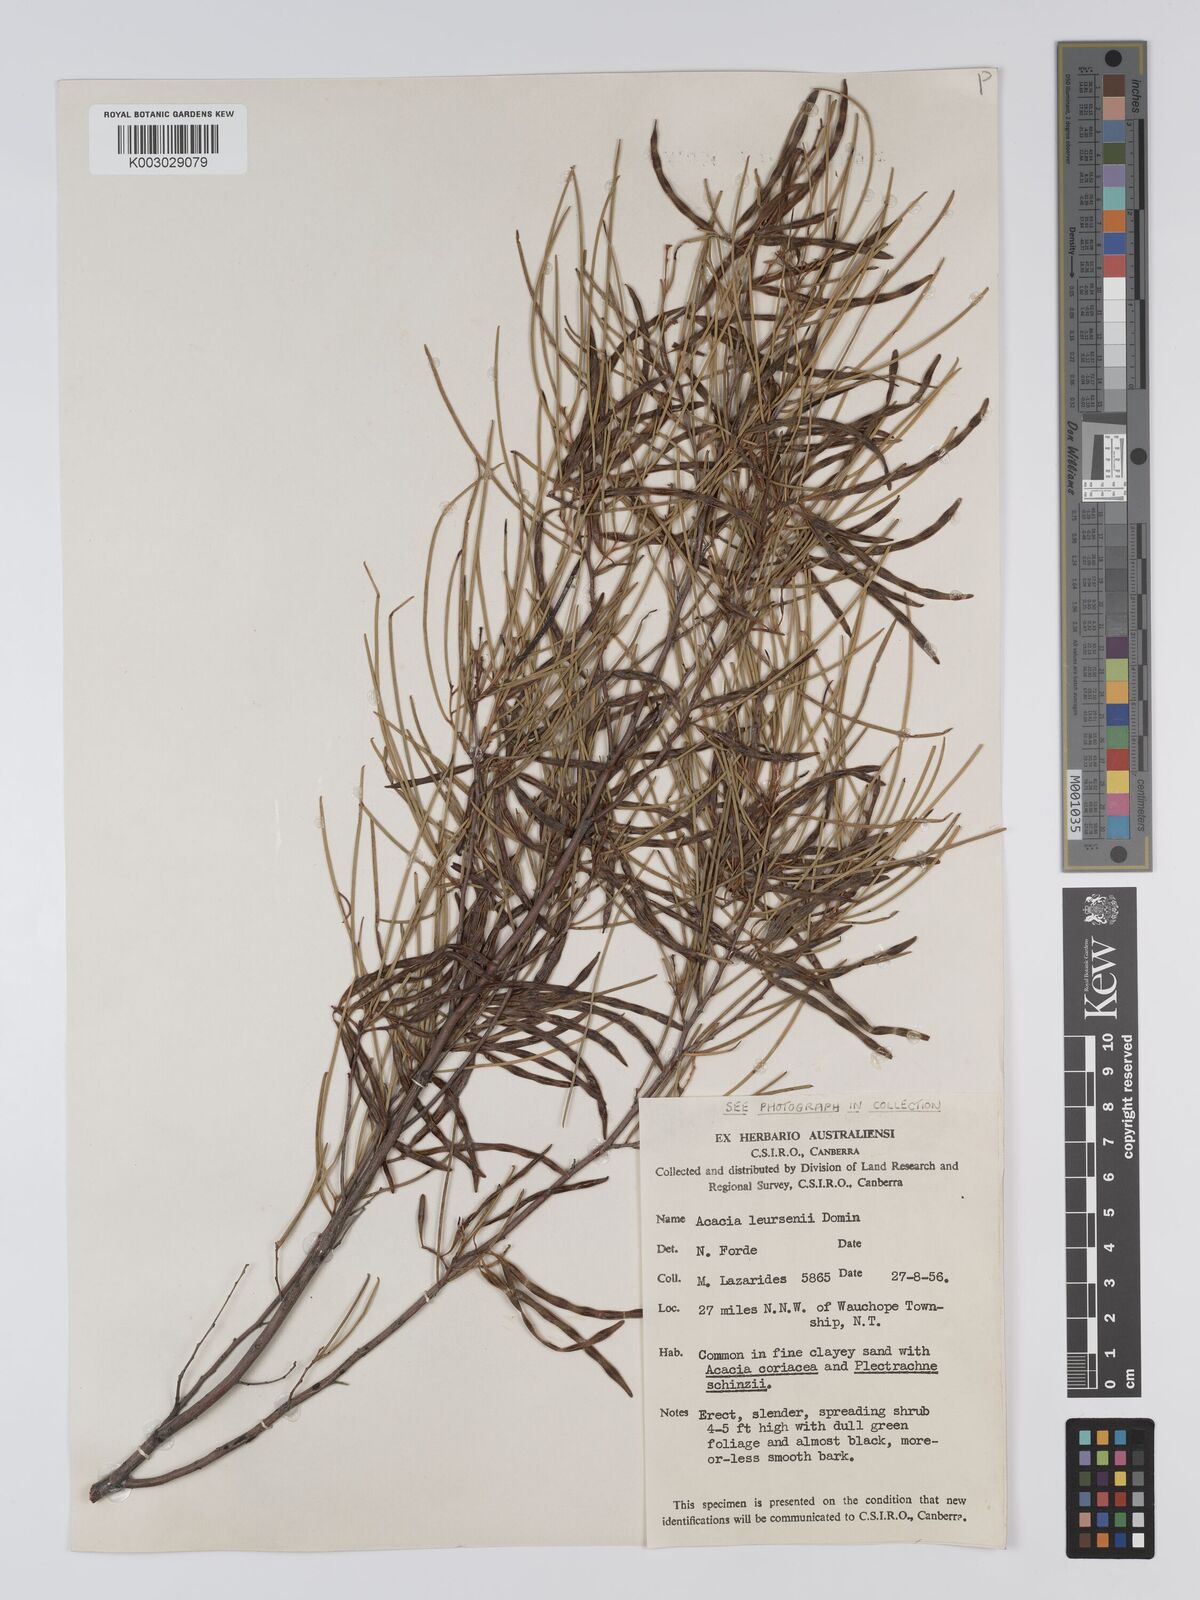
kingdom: Plantae
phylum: Tracheophyta
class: Magnoliopsida
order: Fabales
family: Fabaceae
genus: Acacia
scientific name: Acacia tenuissima
